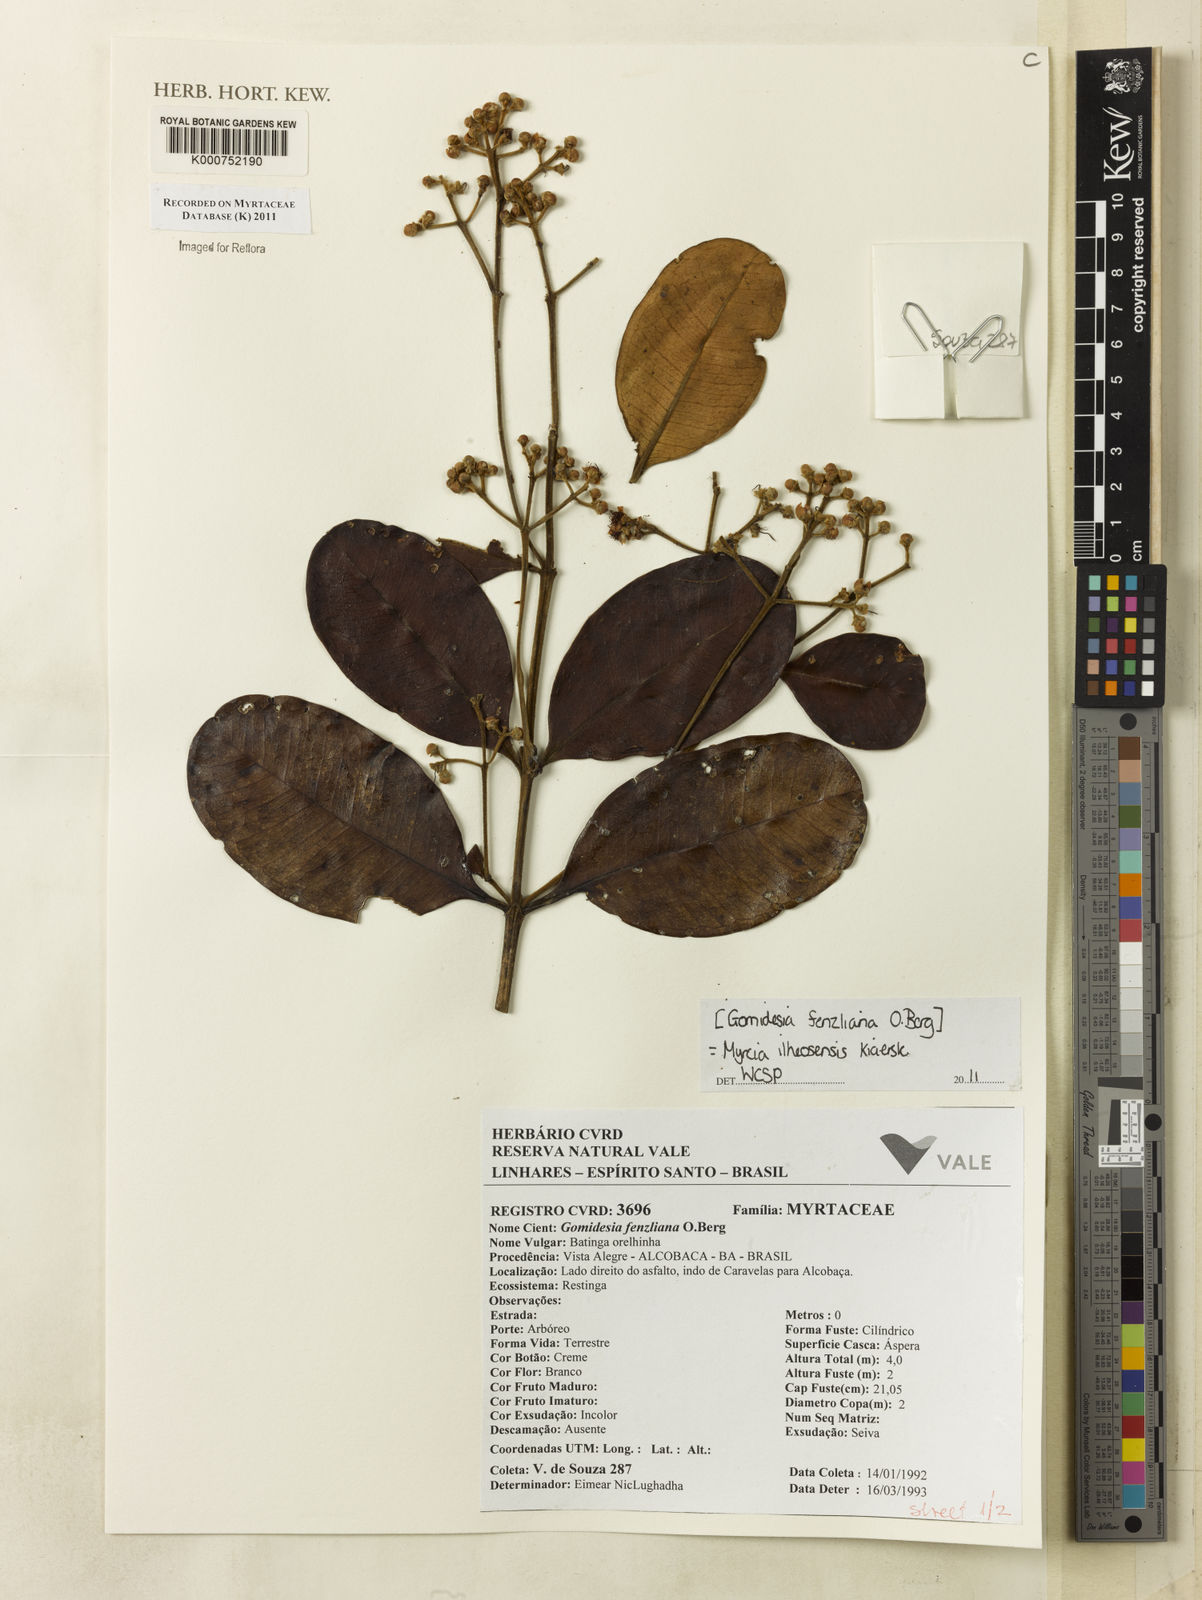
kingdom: Plantae
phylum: Tracheophyta
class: Magnoliopsida
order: Myrtales
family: Myrtaceae
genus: Myrcia
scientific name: Myrcia ilheosensis
